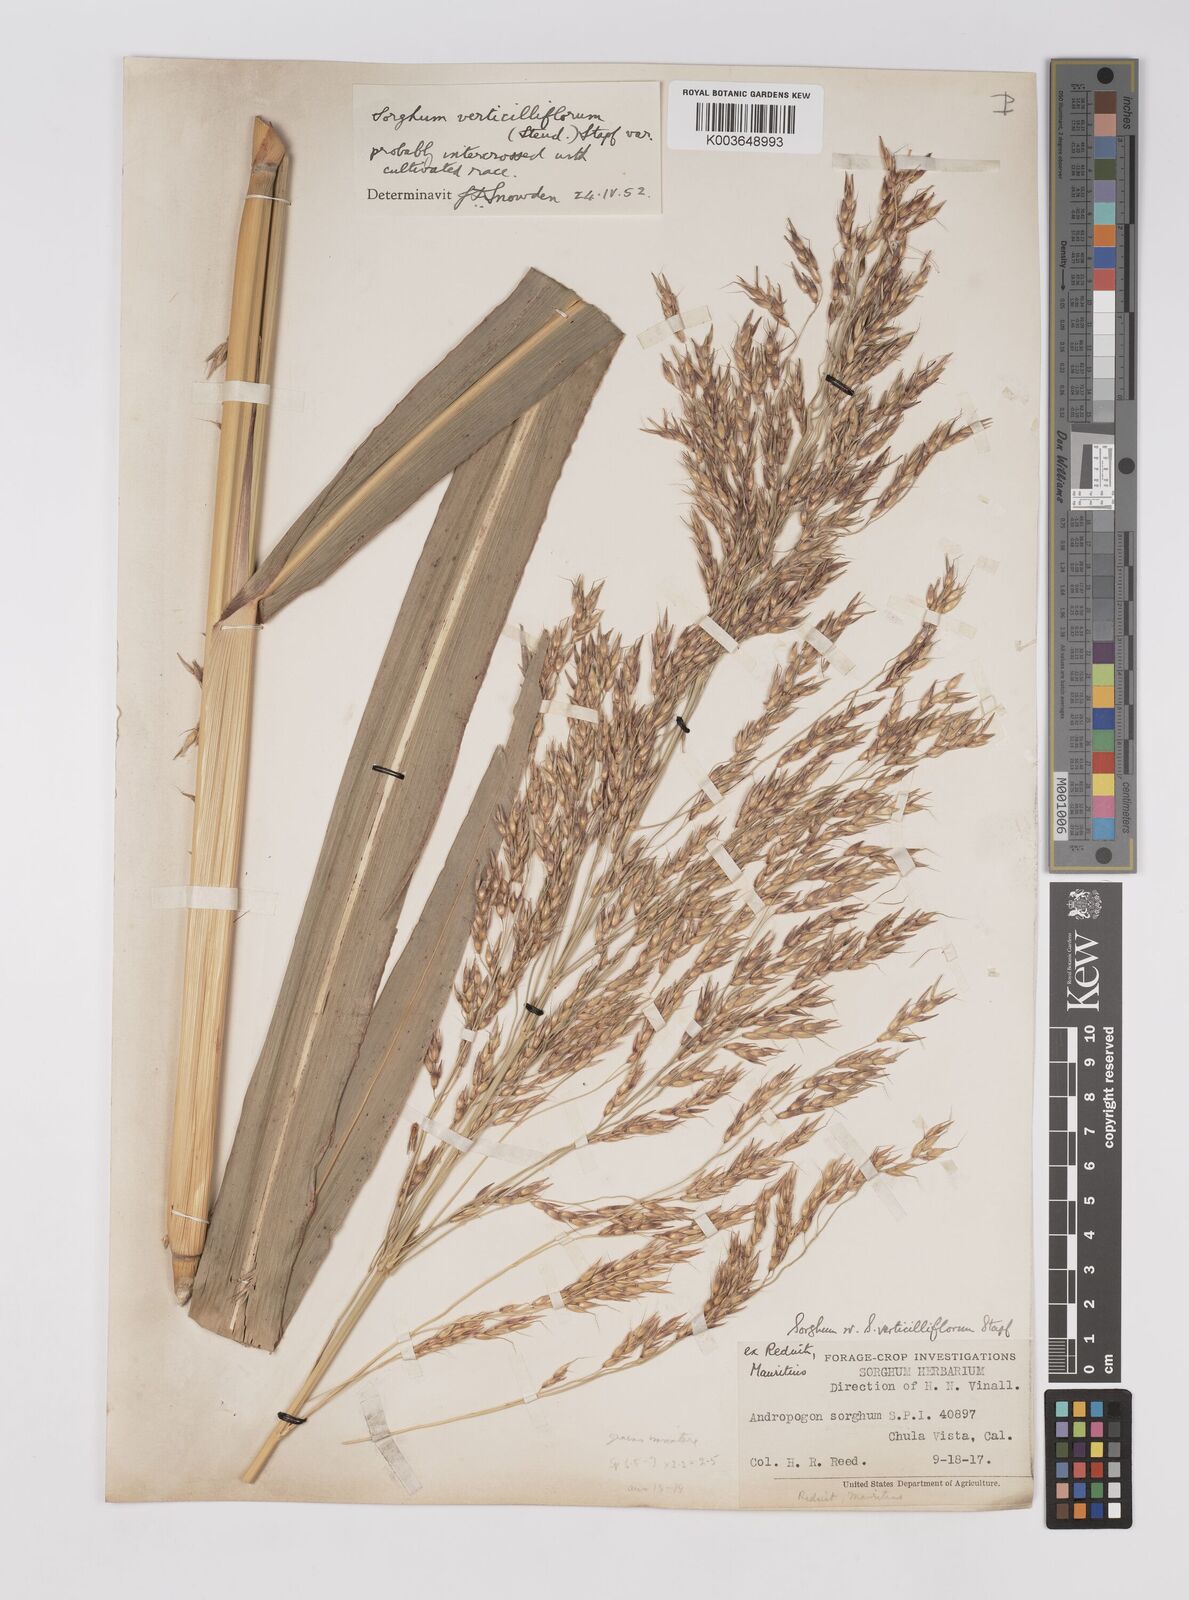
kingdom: Plantae
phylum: Tracheophyta
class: Liliopsida
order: Poales
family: Poaceae
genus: Sorghum
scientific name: Sorghum arundinaceum
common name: Sorghum
